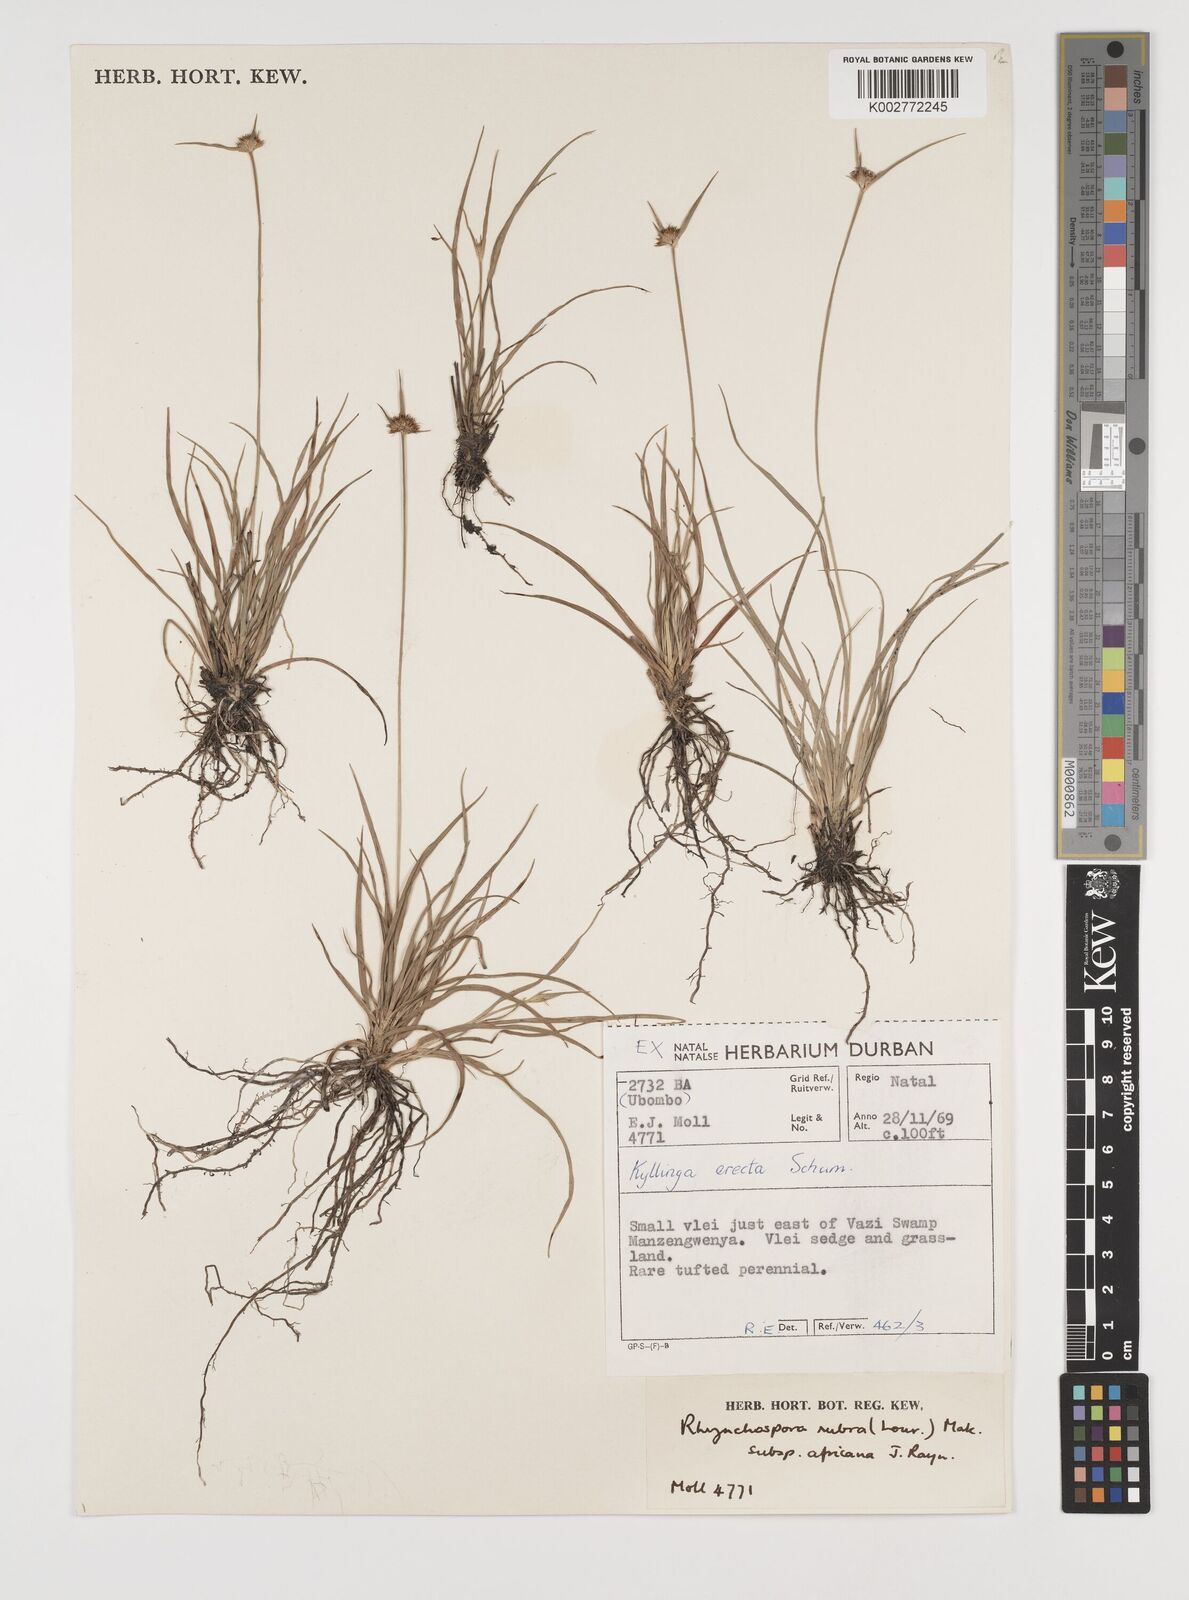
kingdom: Plantae
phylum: Tracheophyta
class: Liliopsida
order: Poales
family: Cyperaceae
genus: Rhynchospora
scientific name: Rhynchospora rubra
